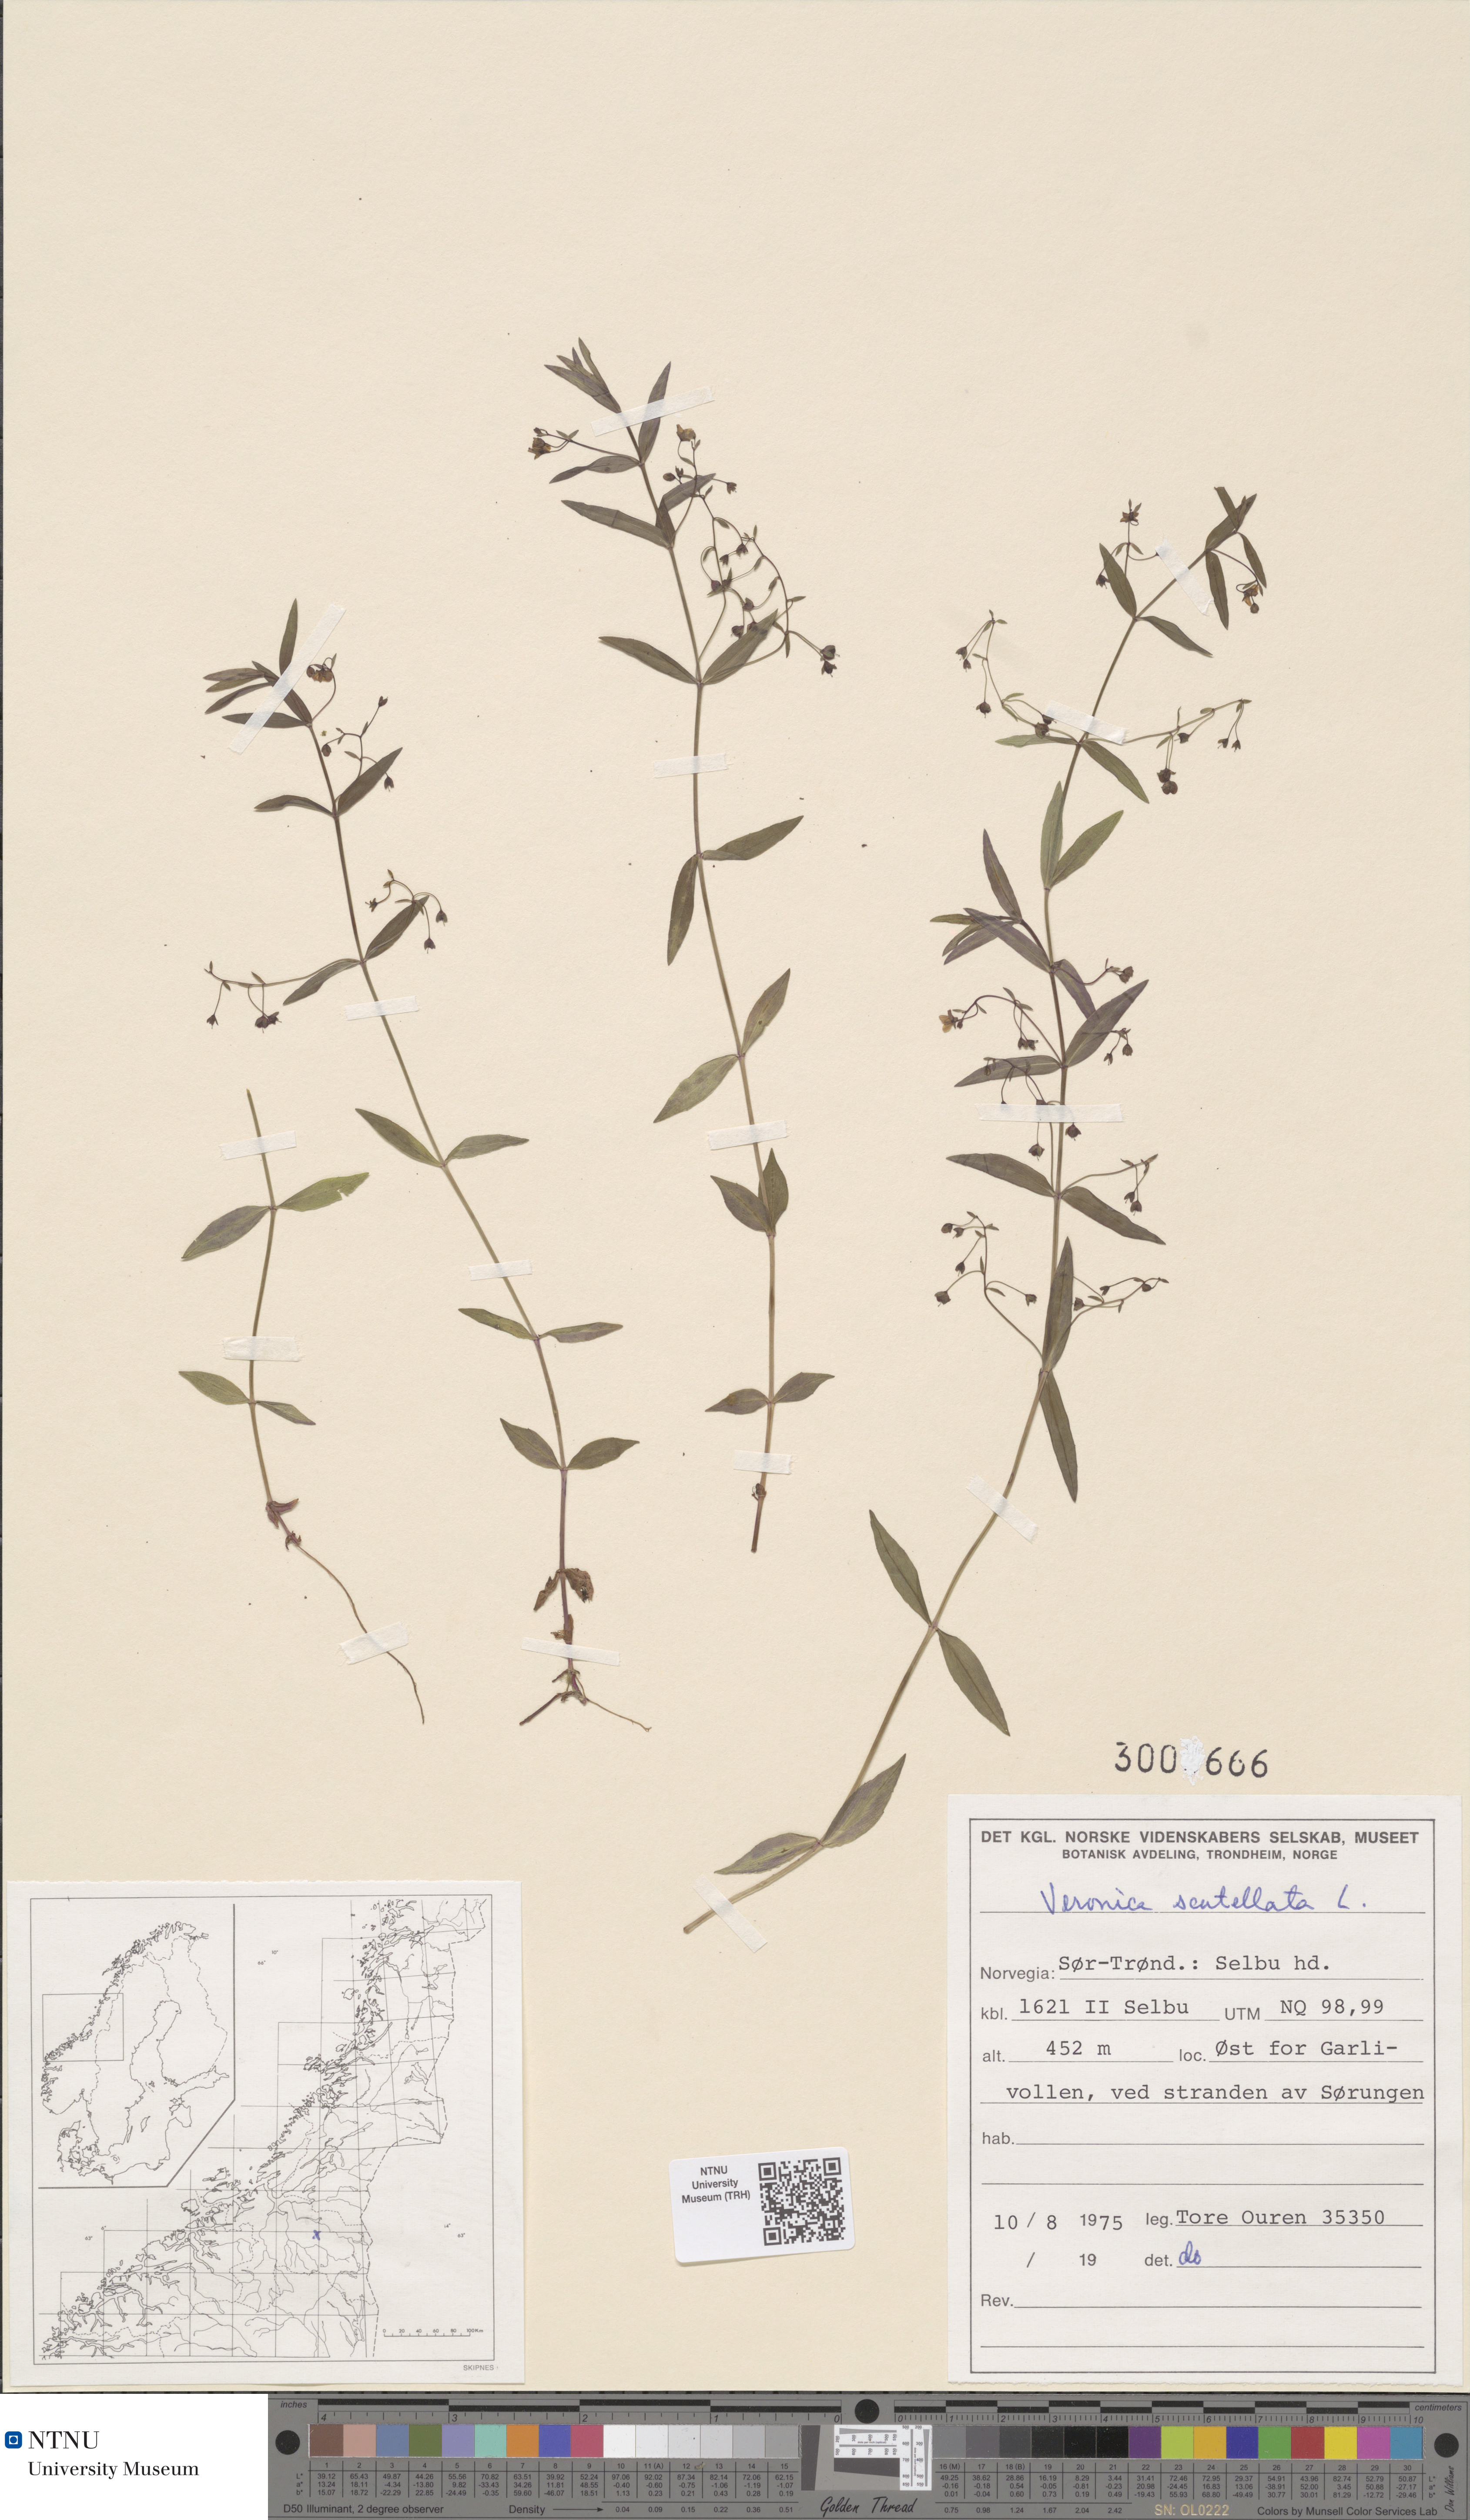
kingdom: Plantae
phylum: Tracheophyta
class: Magnoliopsida
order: Lamiales
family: Plantaginaceae
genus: Veronica
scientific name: Veronica scutellata
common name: Marsh speedwell
